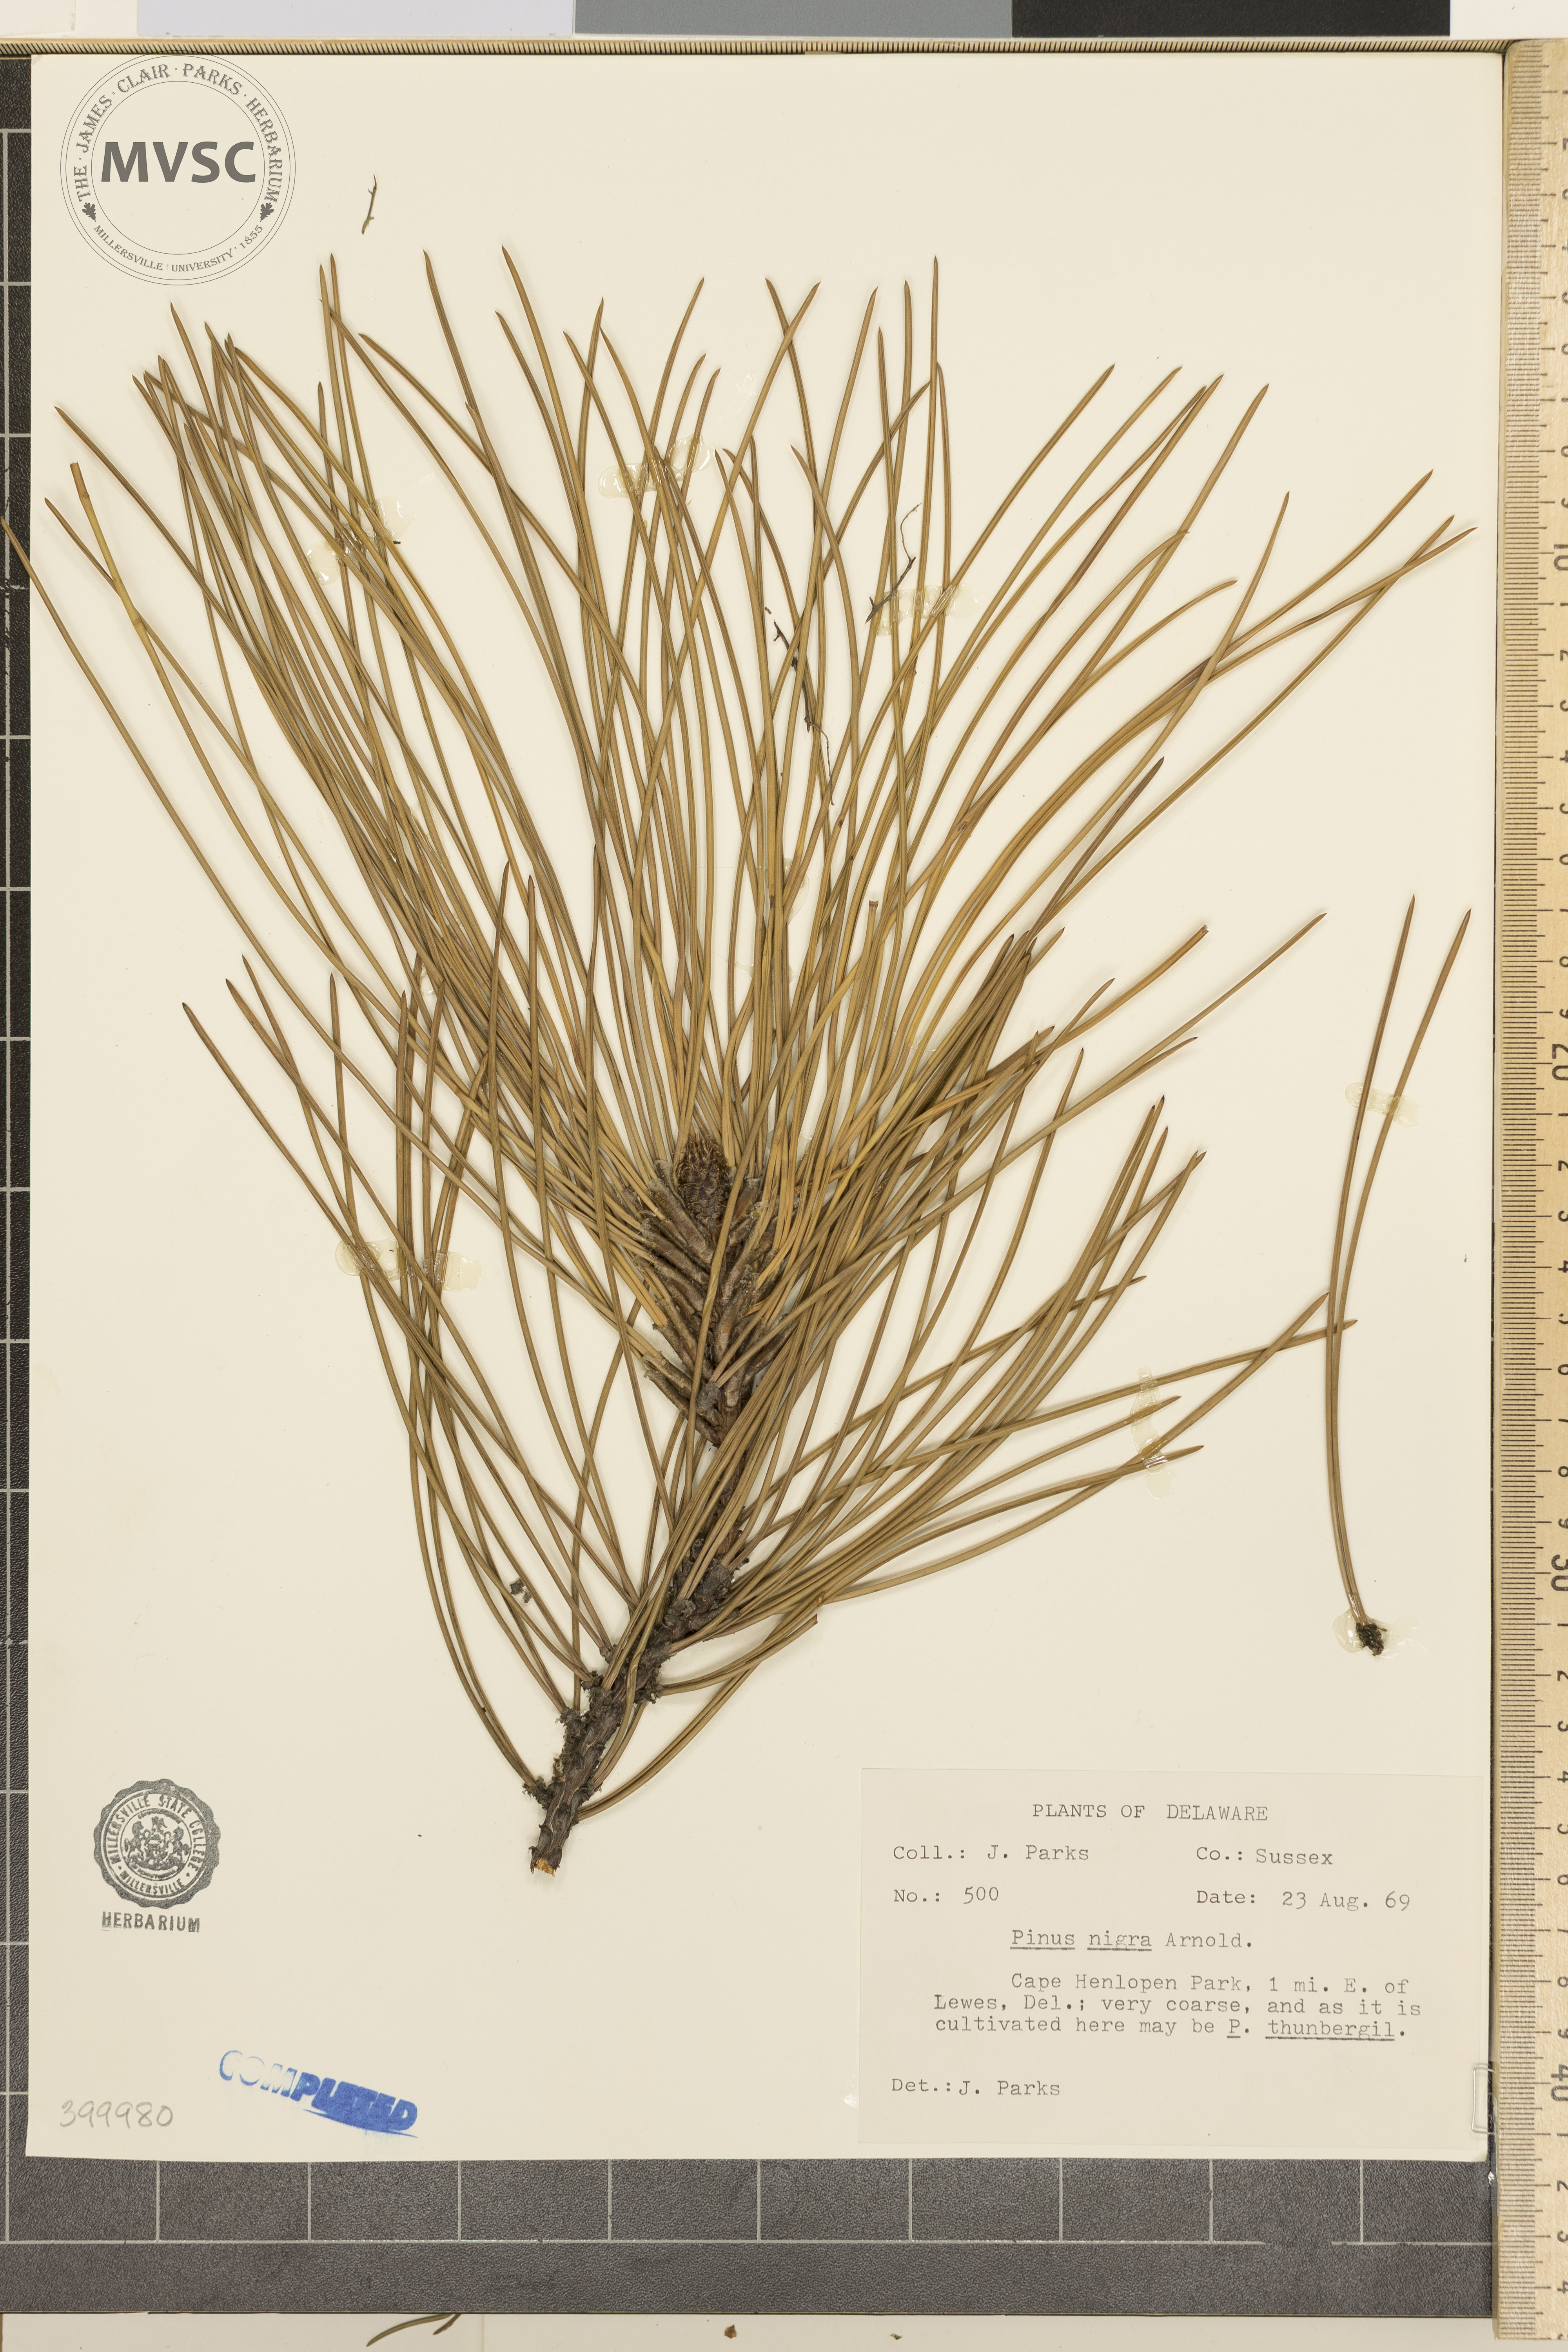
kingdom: Plantae
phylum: Tracheophyta
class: Pinopsida
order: Pinales
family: Pinaceae
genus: Pinus
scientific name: Pinus nigra
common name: Austrian pine
